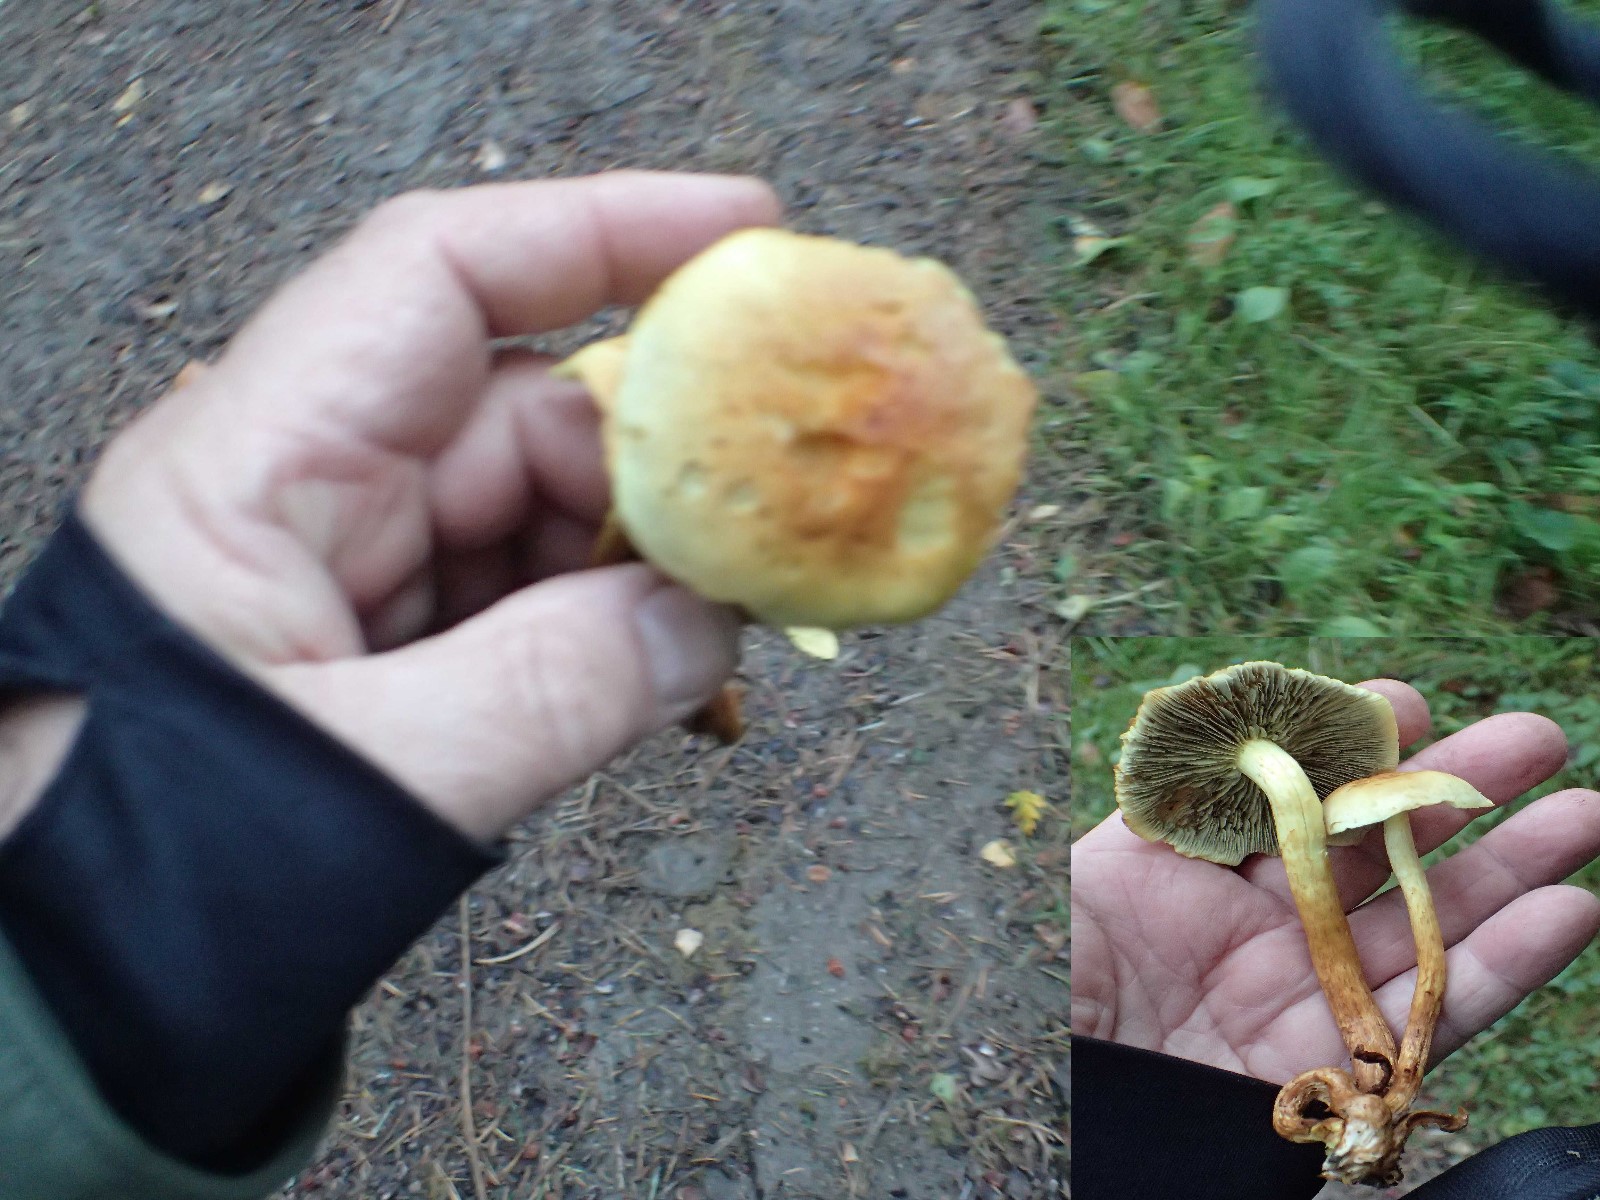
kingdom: Fungi
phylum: Basidiomycota
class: Agaricomycetes
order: Agaricales
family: Strophariaceae
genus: Hypholoma
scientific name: Hypholoma fasciculare
